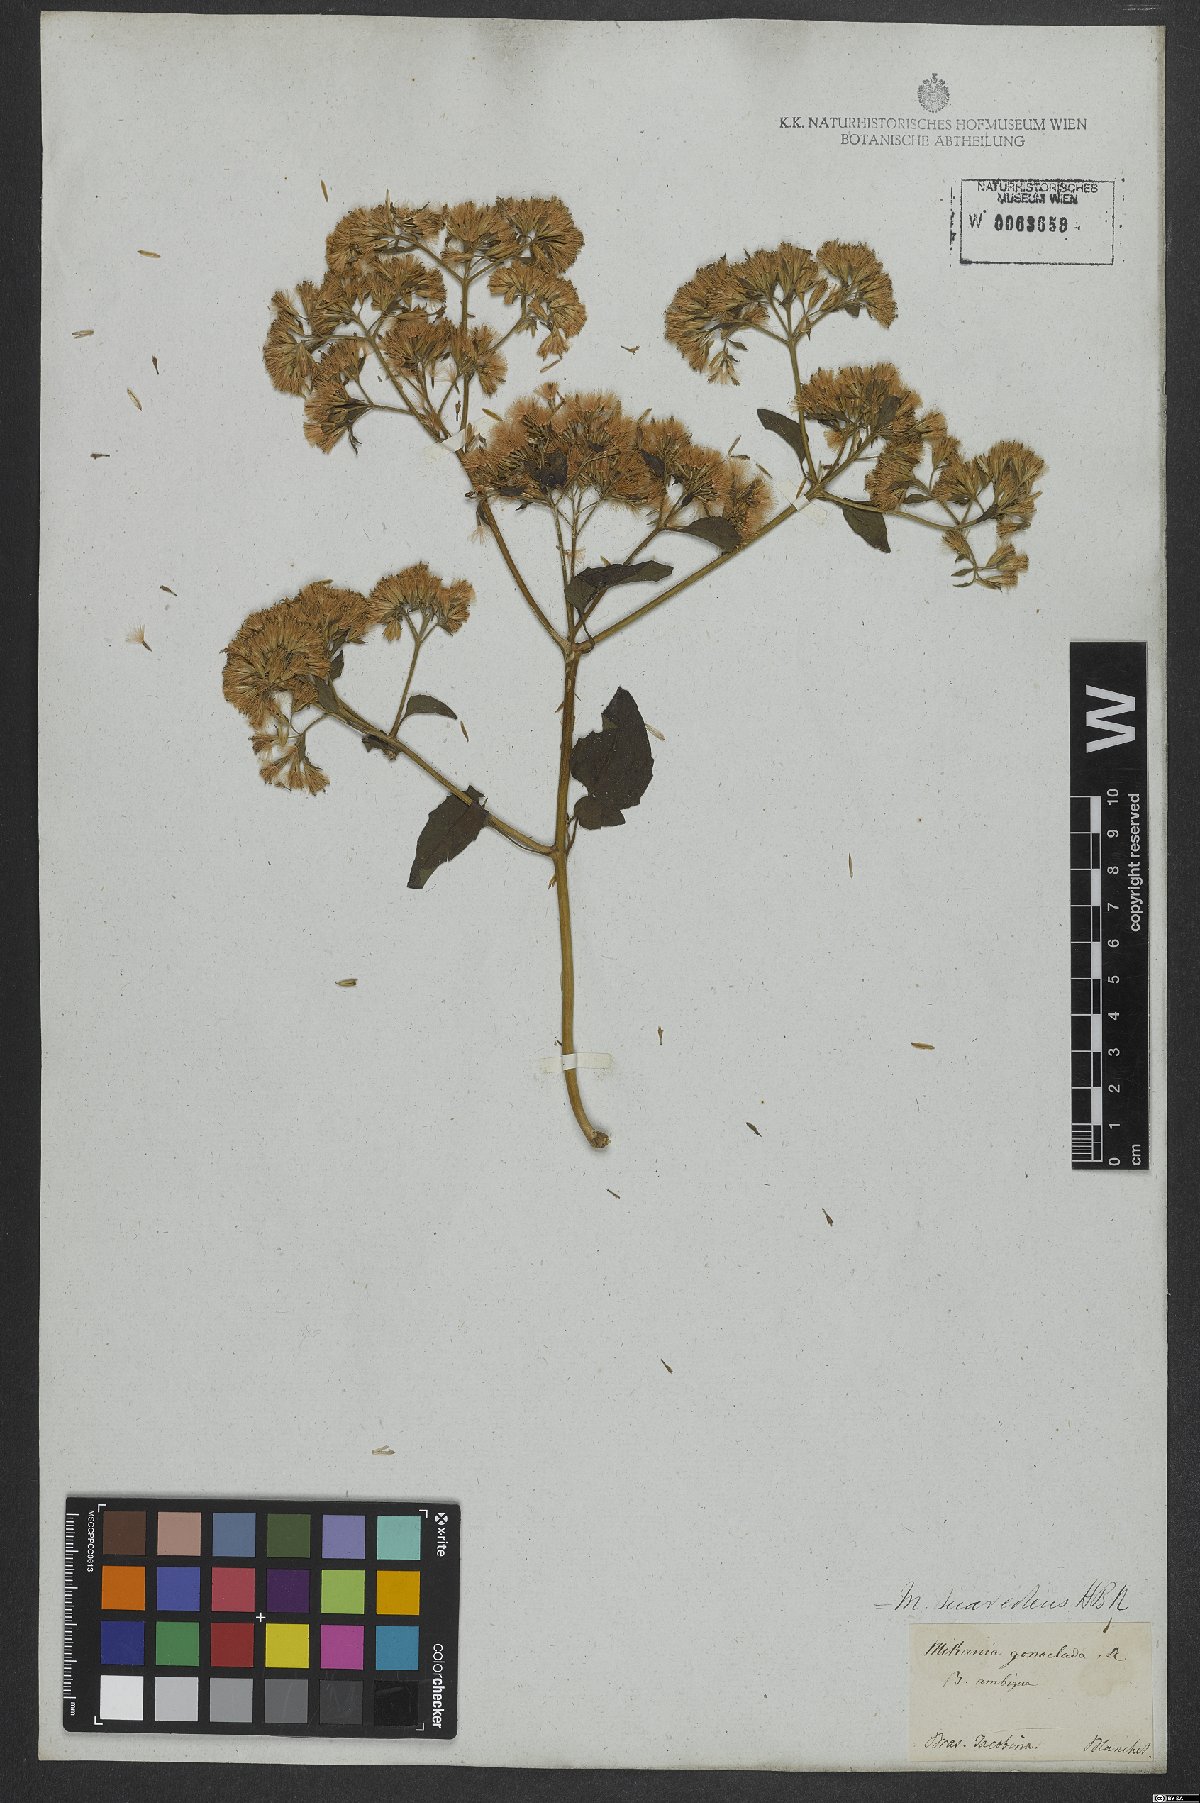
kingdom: Plantae
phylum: Tracheophyta
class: Magnoliopsida
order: Asterales
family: Asteraceae
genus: Mikania
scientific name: Mikania cordifolia
